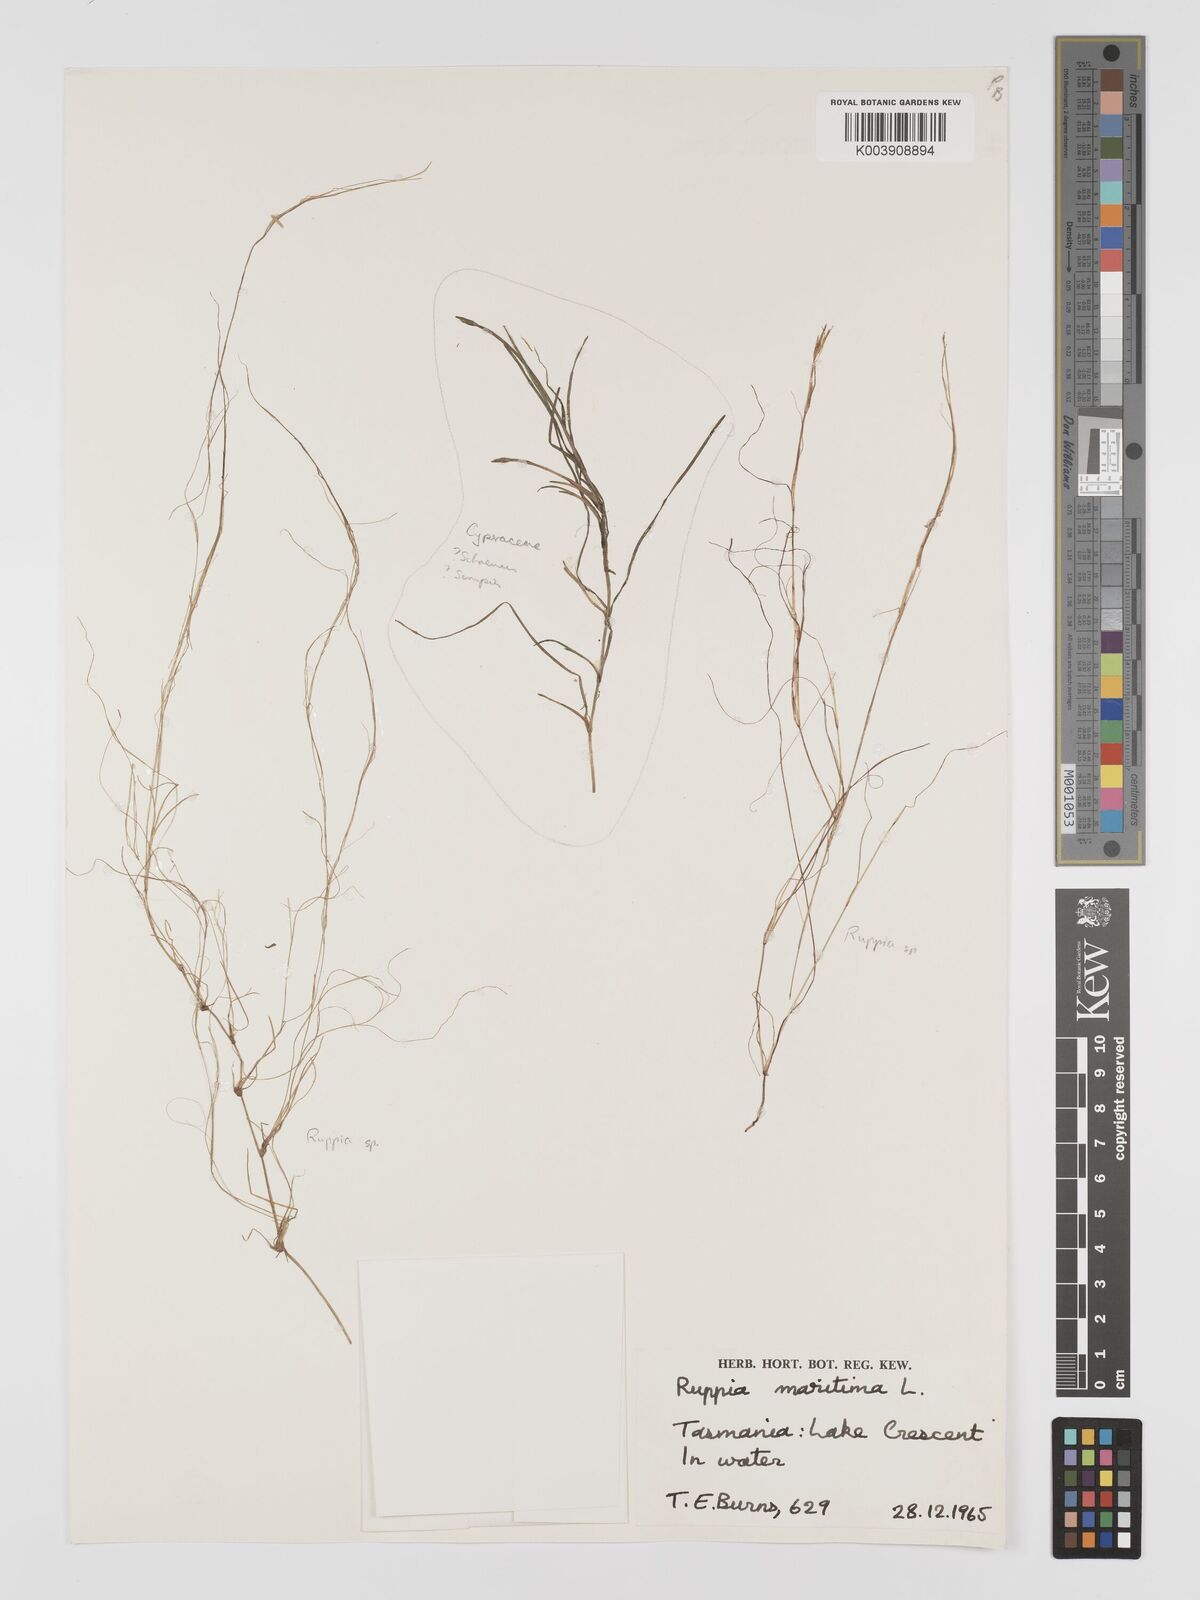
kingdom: Plantae
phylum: Tracheophyta
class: Liliopsida
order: Alismatales
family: Ruppiaceae
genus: Ruppia
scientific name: Ruppia
